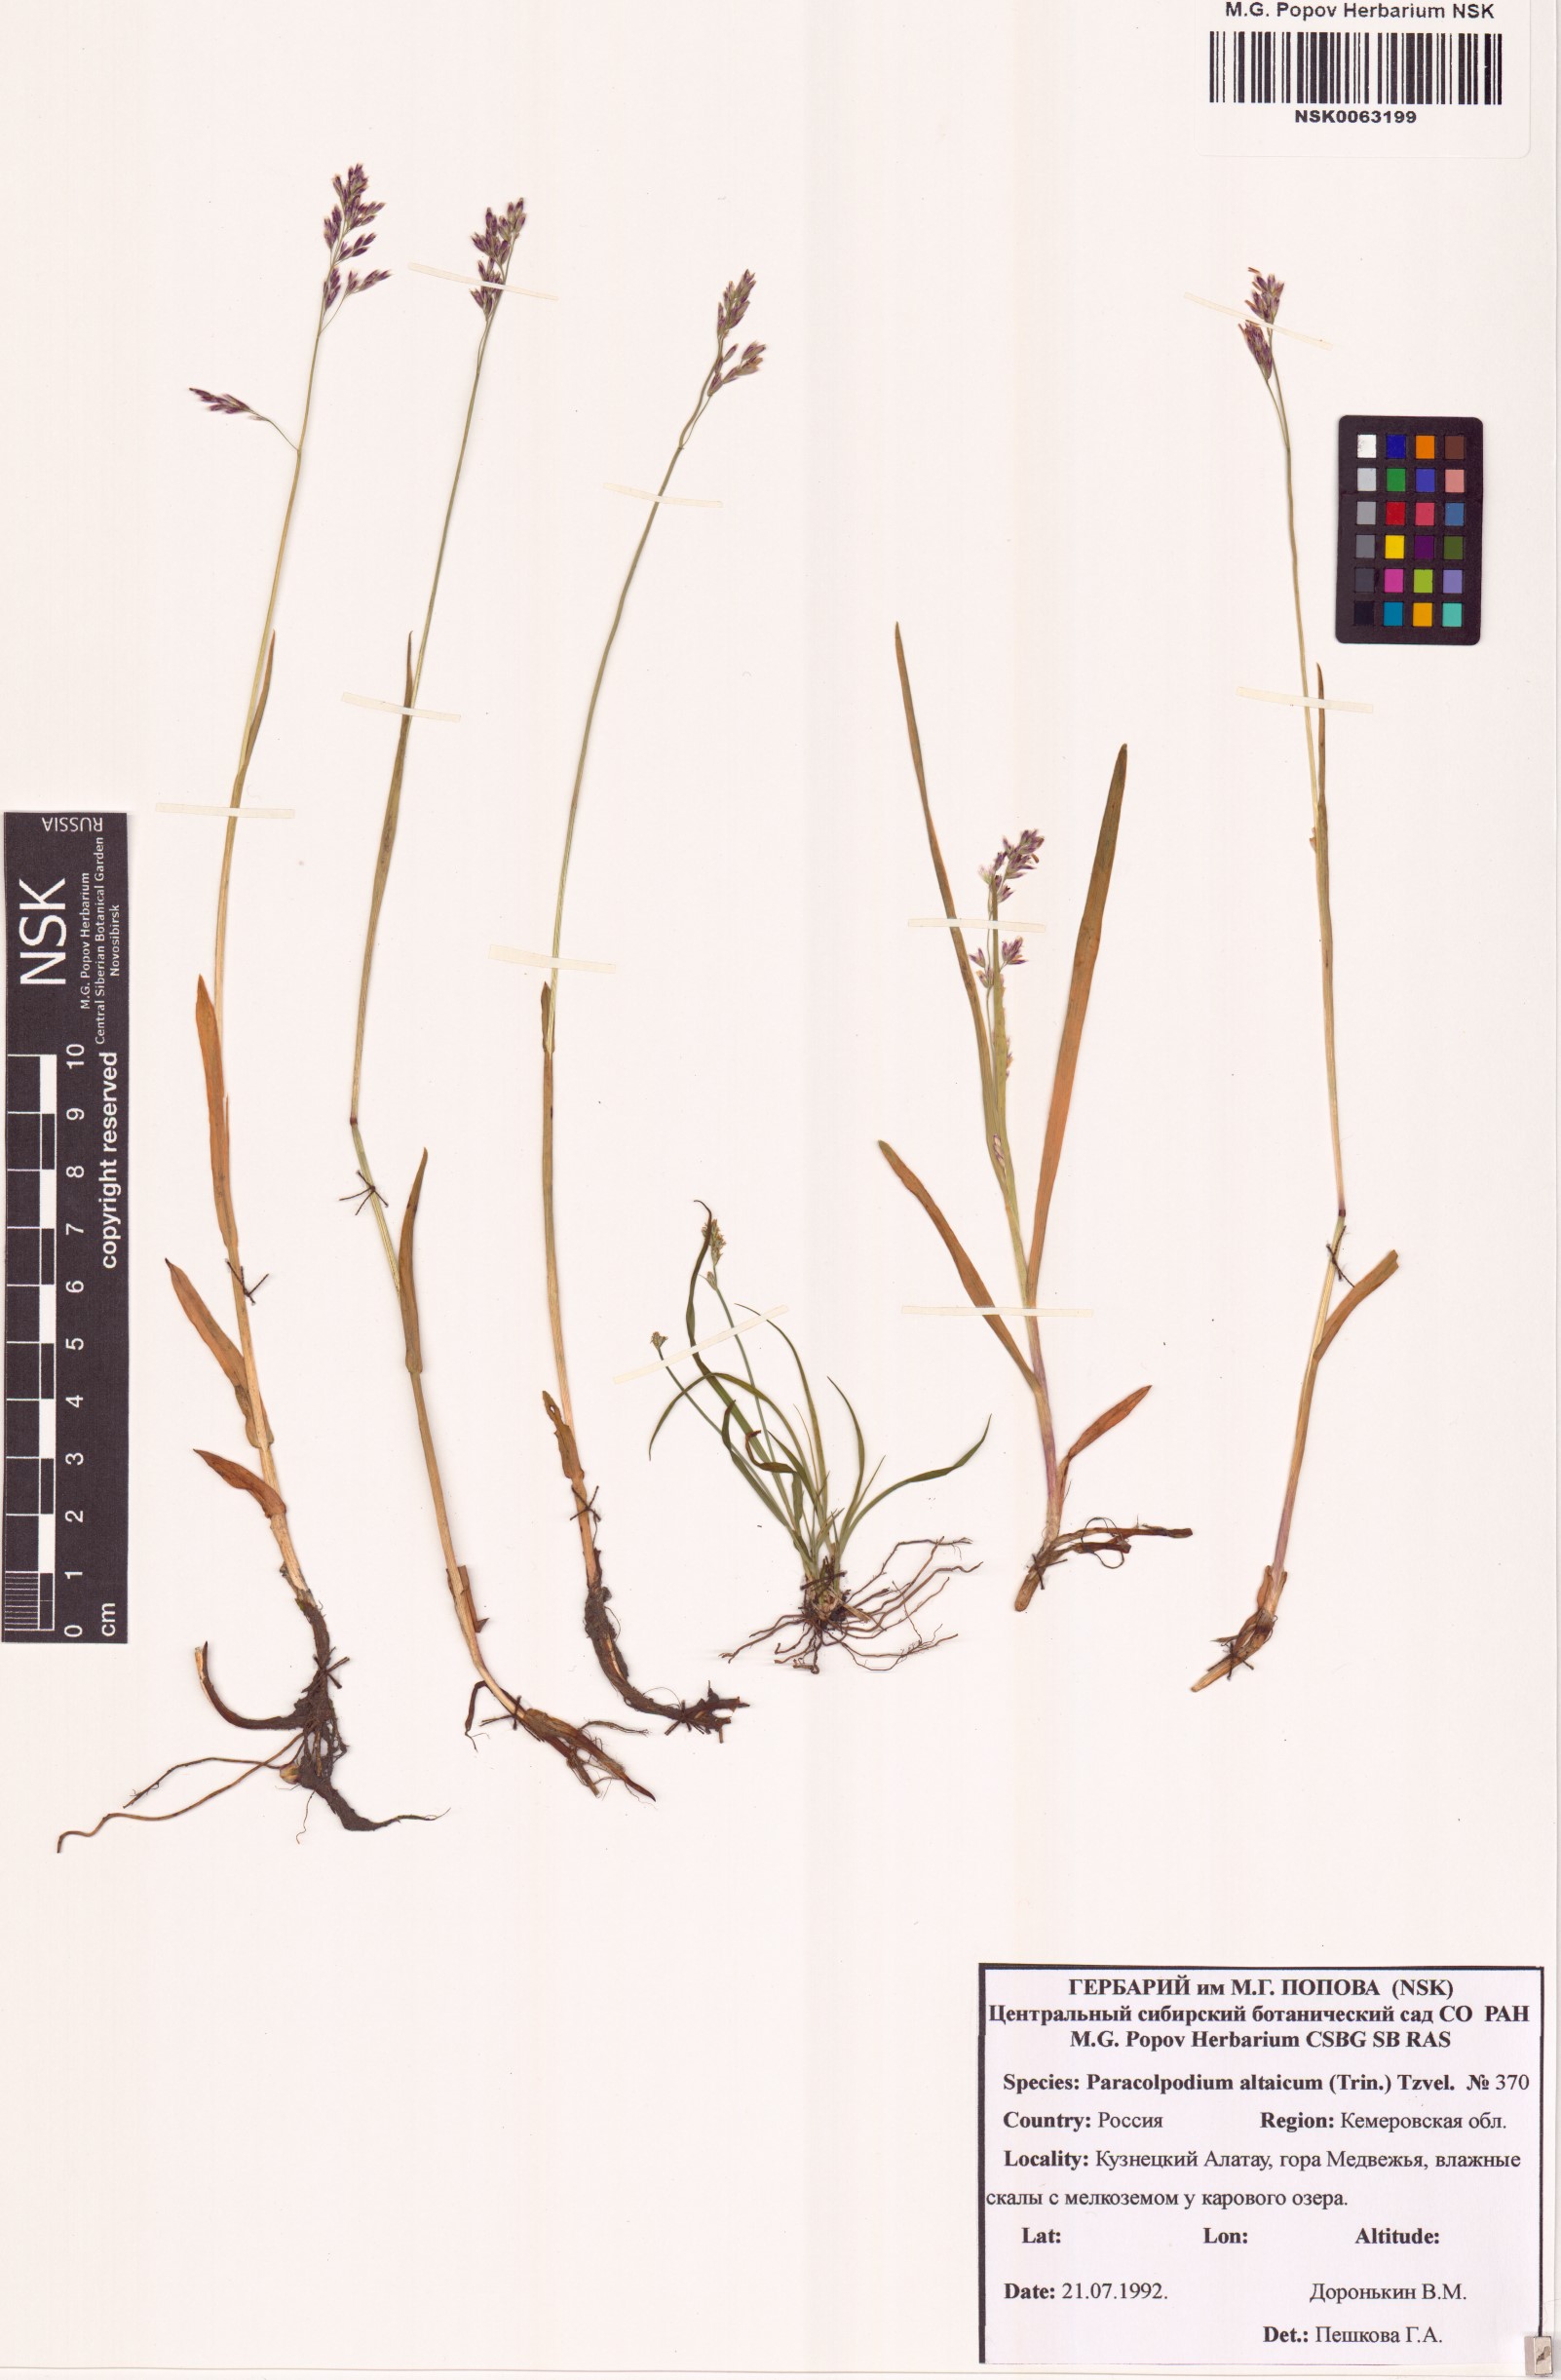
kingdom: Plantae
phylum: Tracheophyta
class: Liliopsida
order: Poales
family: Poaceae
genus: Paracolpodium
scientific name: Paracolpodium altaicum
